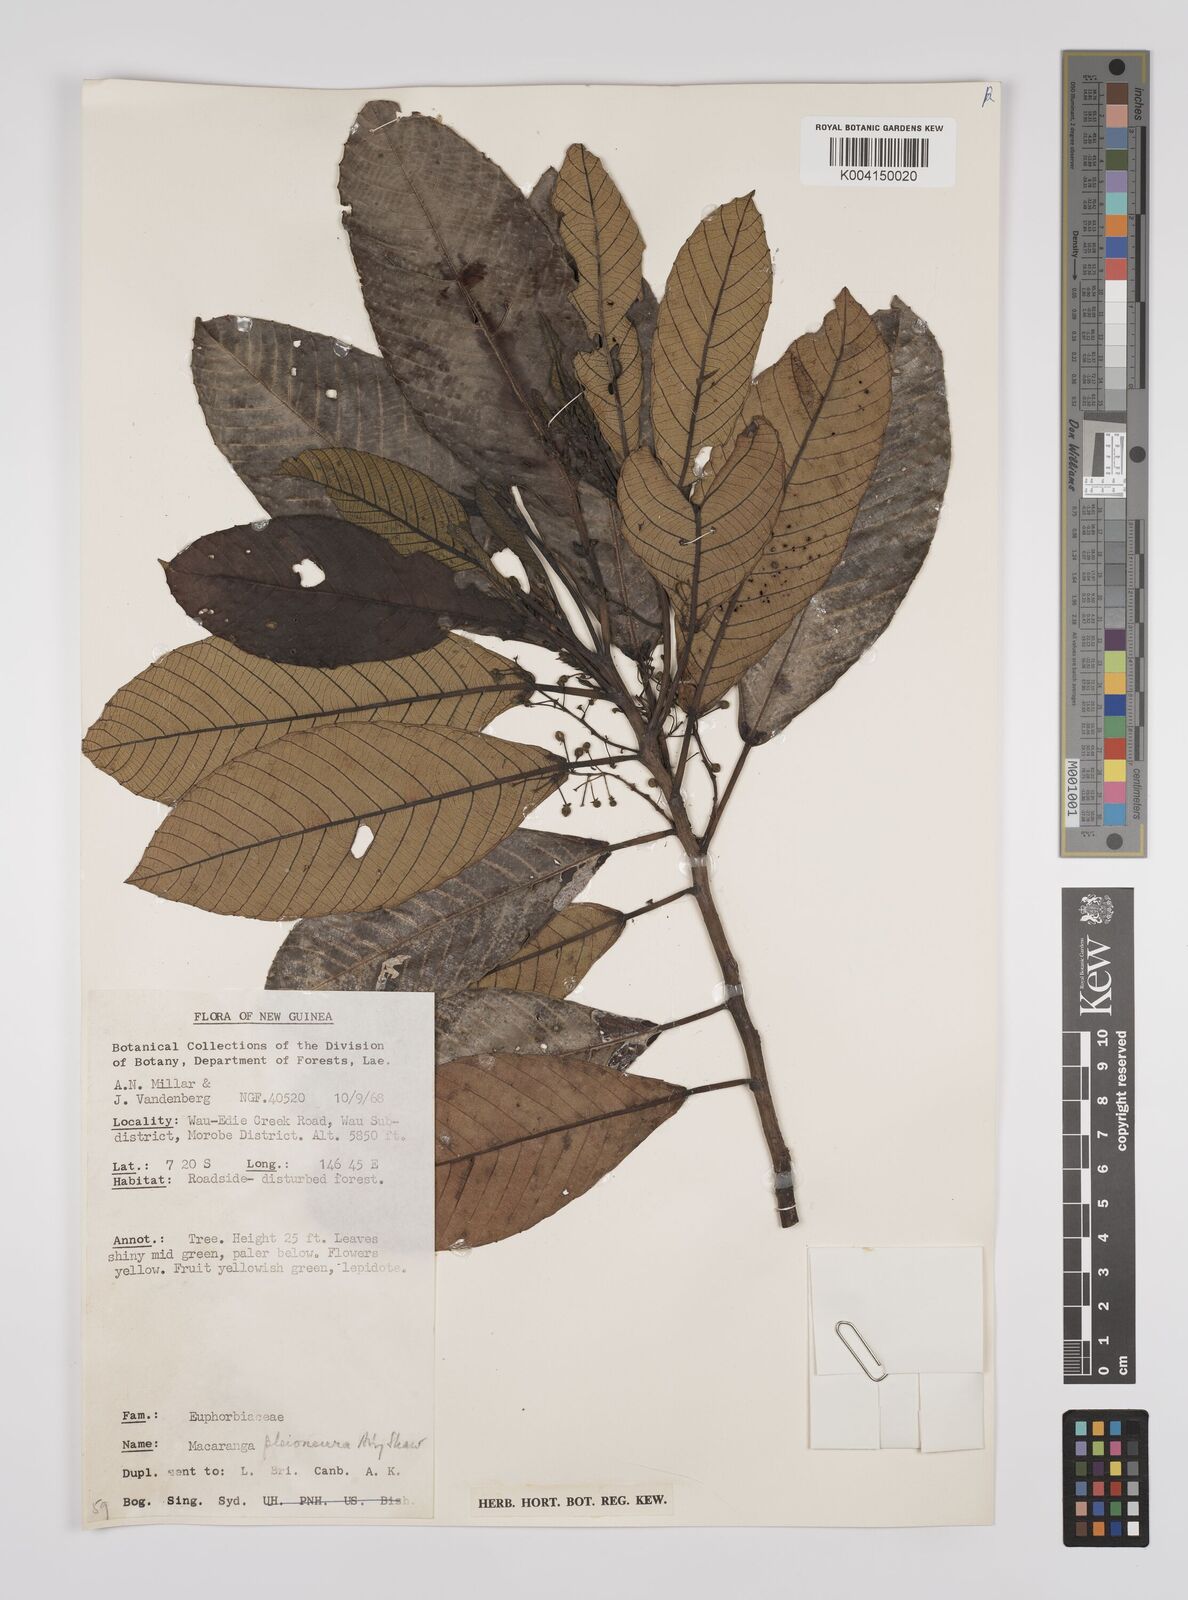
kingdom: Plantae
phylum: Tracheophyta
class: Magnoliopsida
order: Malpighiales
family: Euphorbiaceae
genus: Macaranga
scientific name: Macaranga pleioneura
